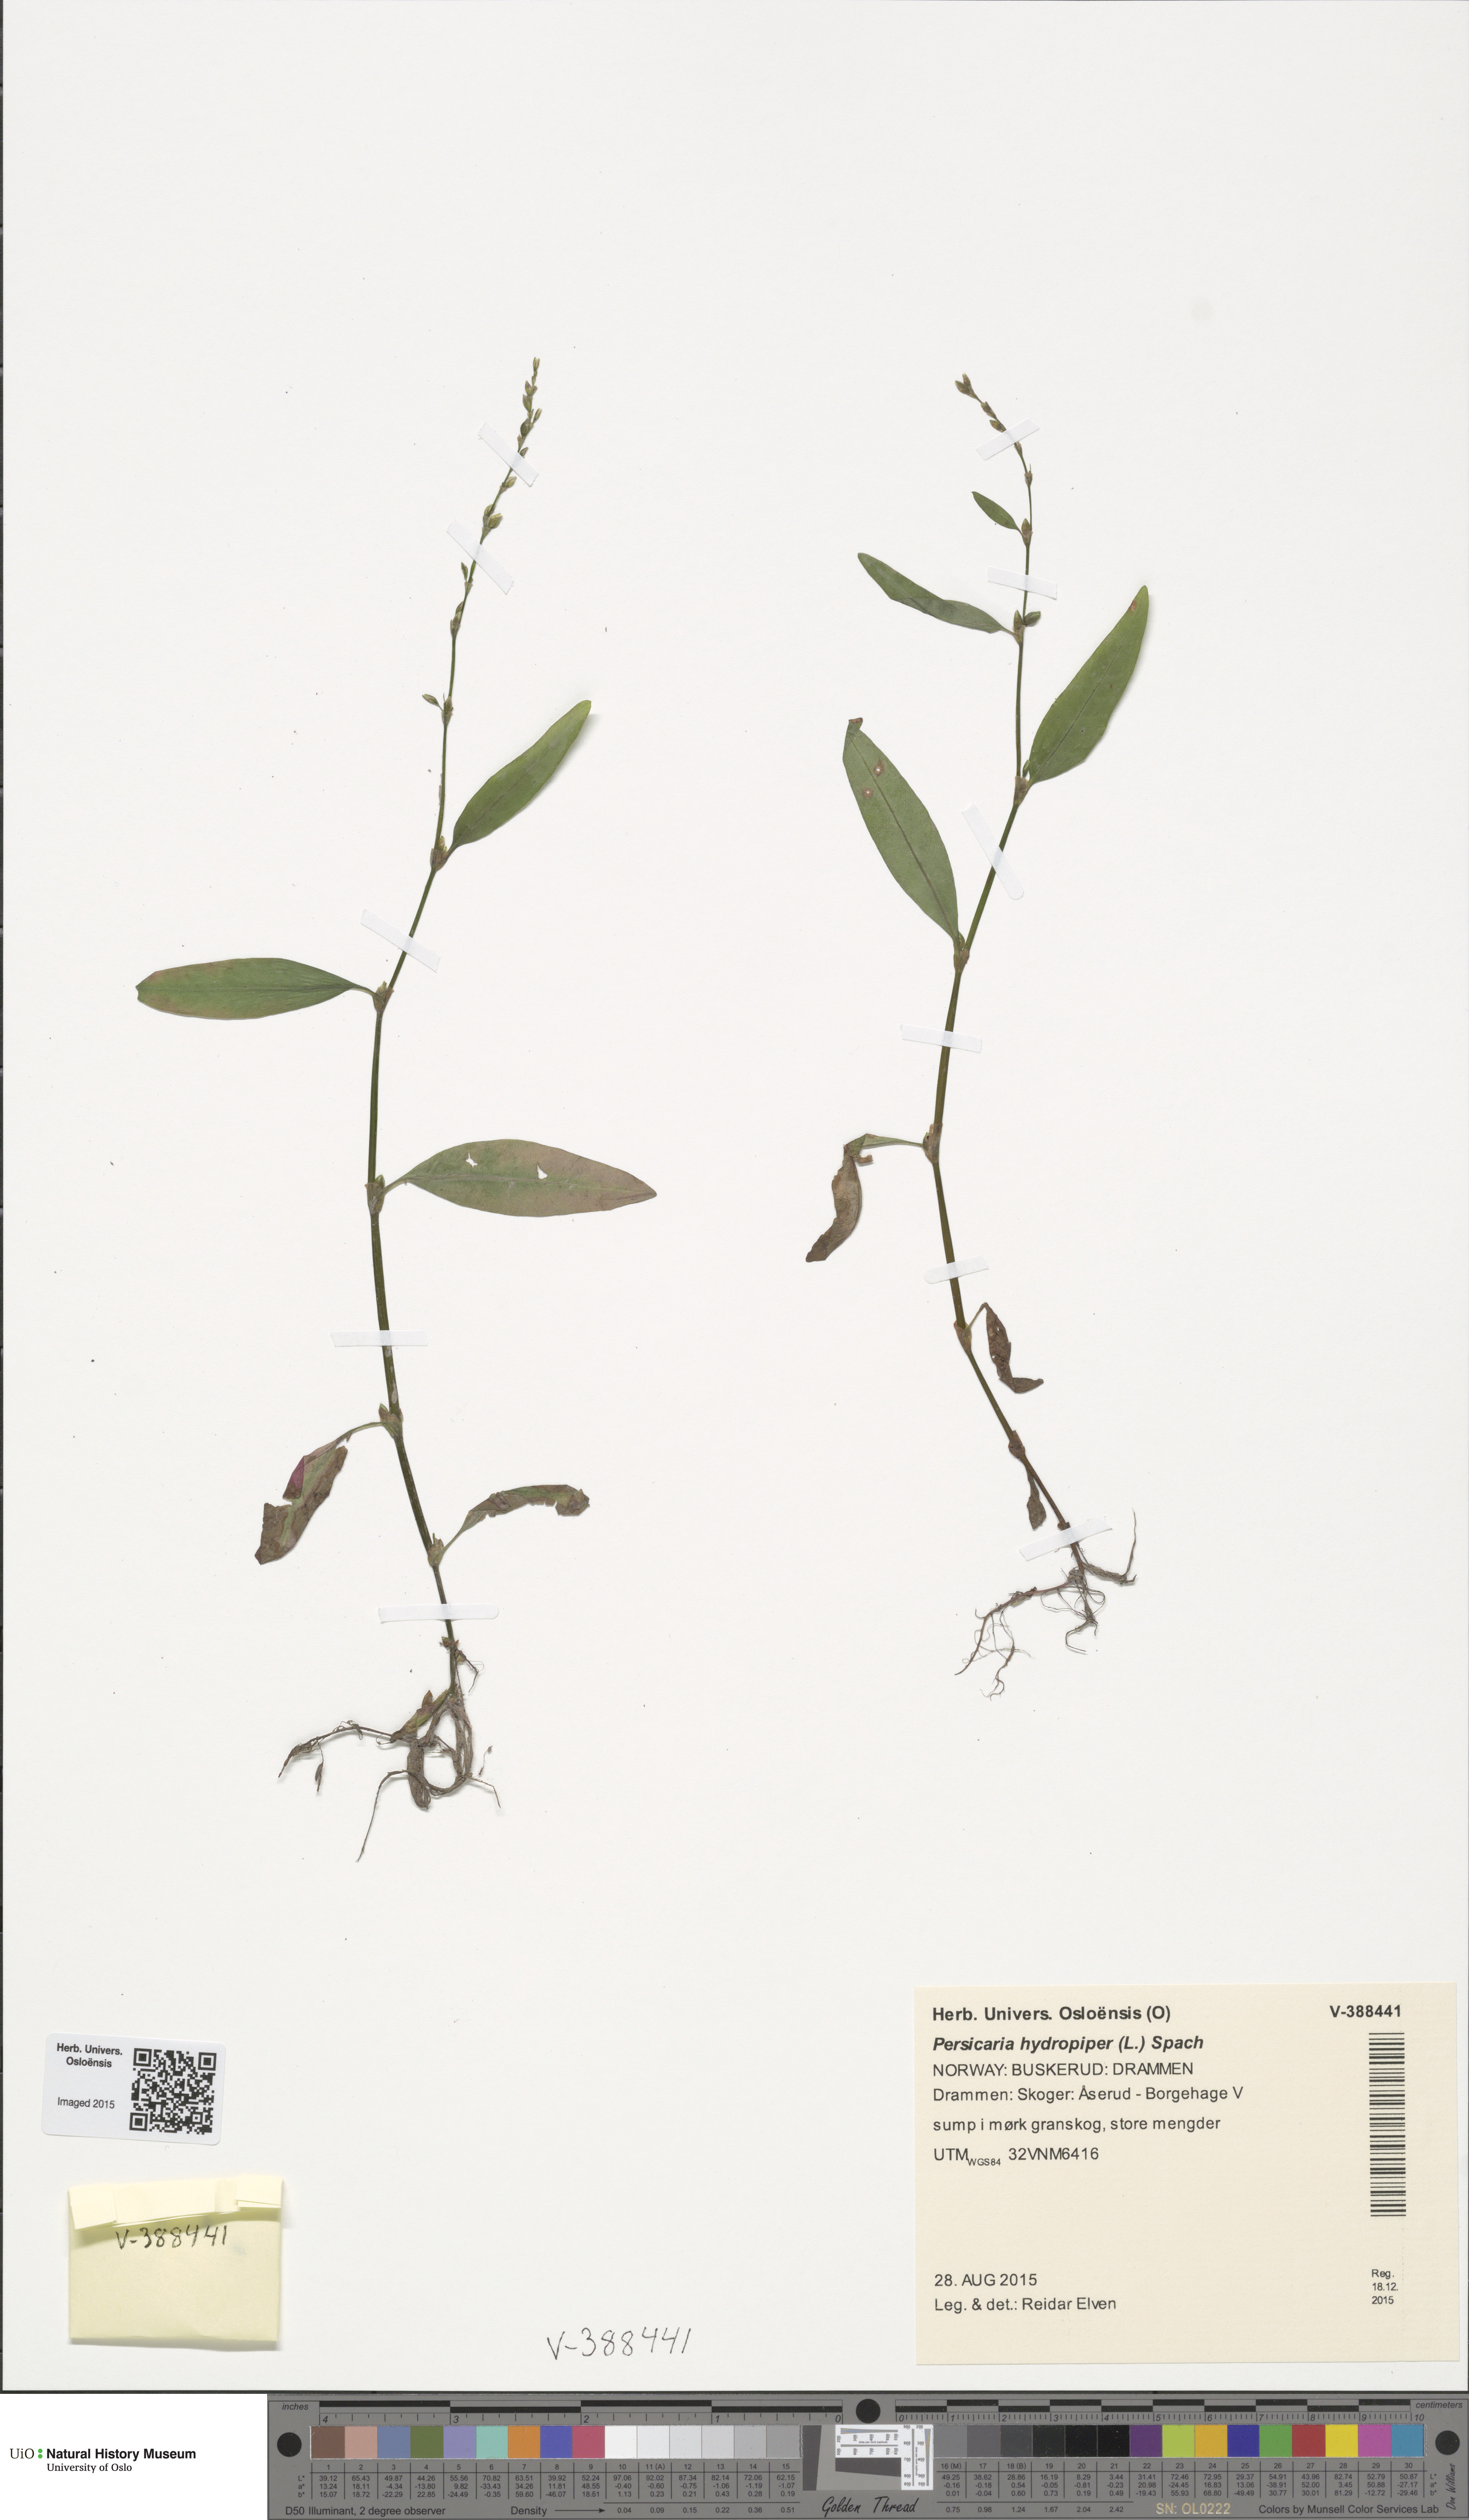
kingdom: Plantae
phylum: Tracheophyta
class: Magnoliopsida
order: Caryophyllales
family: Polygonaceae
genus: Persicaria
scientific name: Persicaria hydropiper
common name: Water-pepper
